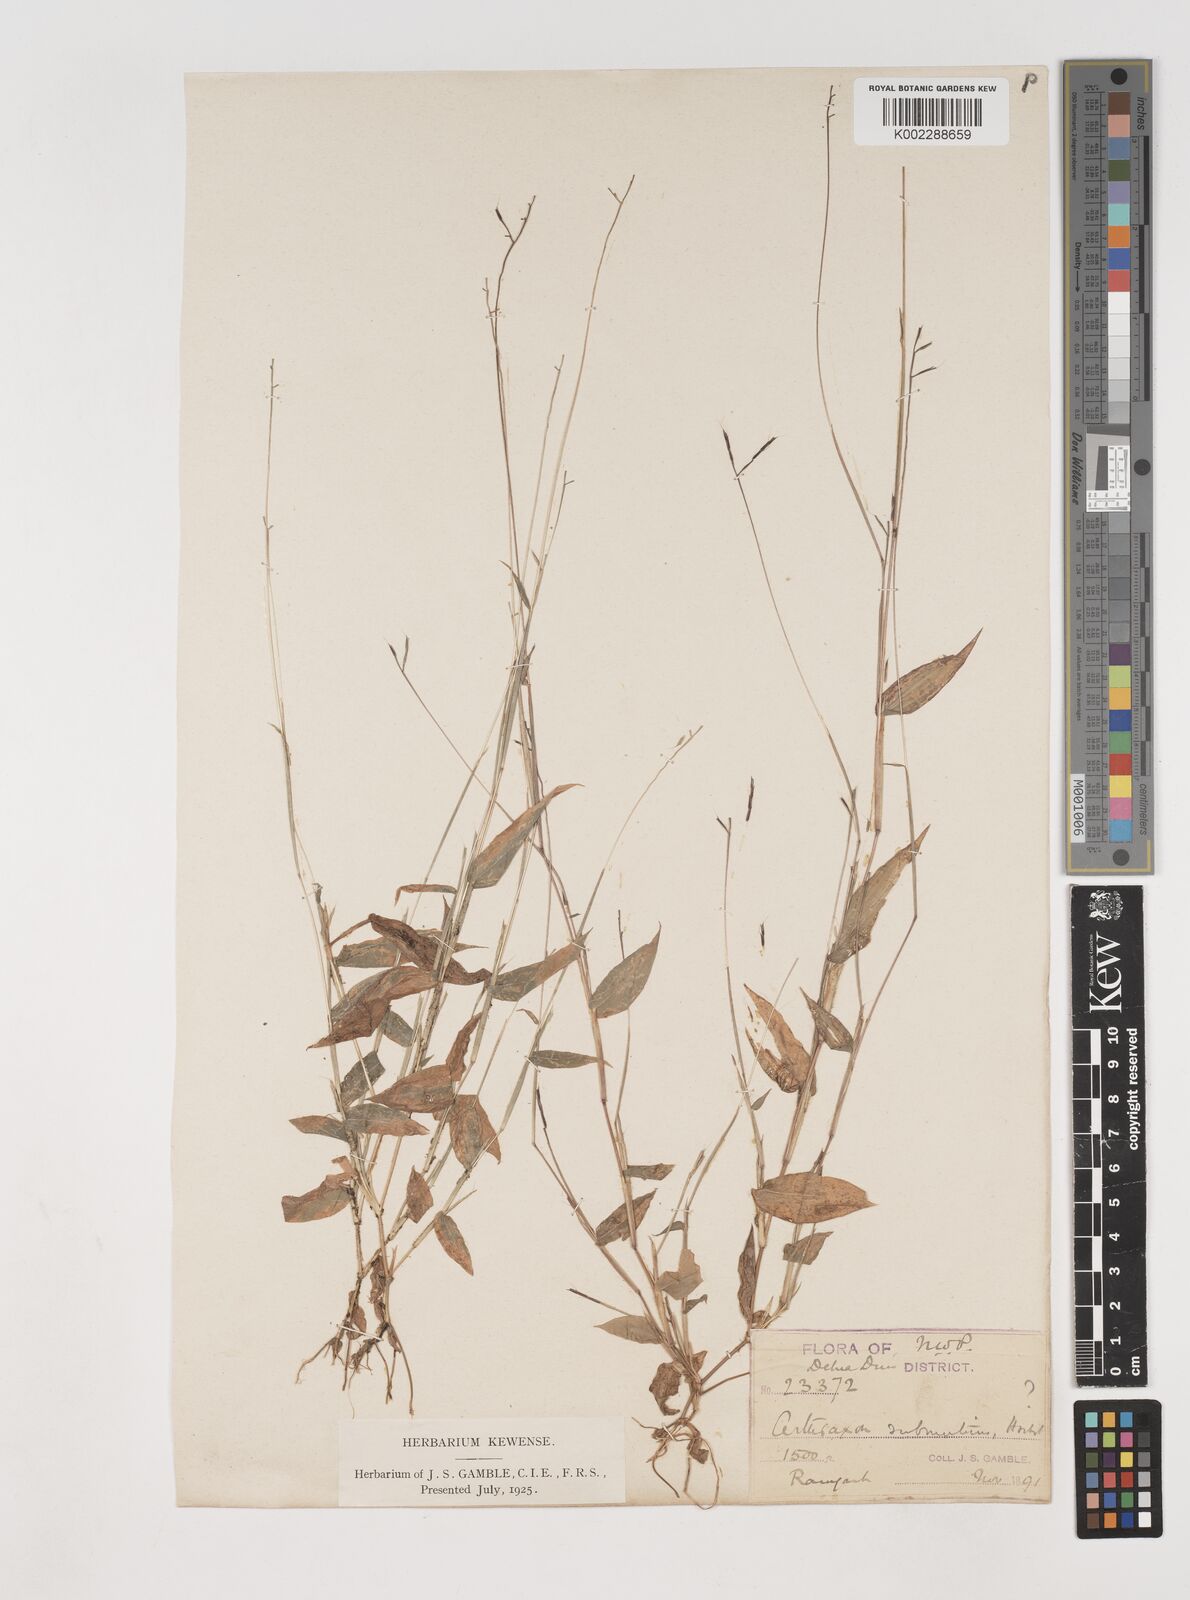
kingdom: Plantae
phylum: Tracheophyta
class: Liliopsida
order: Poales
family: Poaceae
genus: Arthraxon
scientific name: Arthraxon nudus
